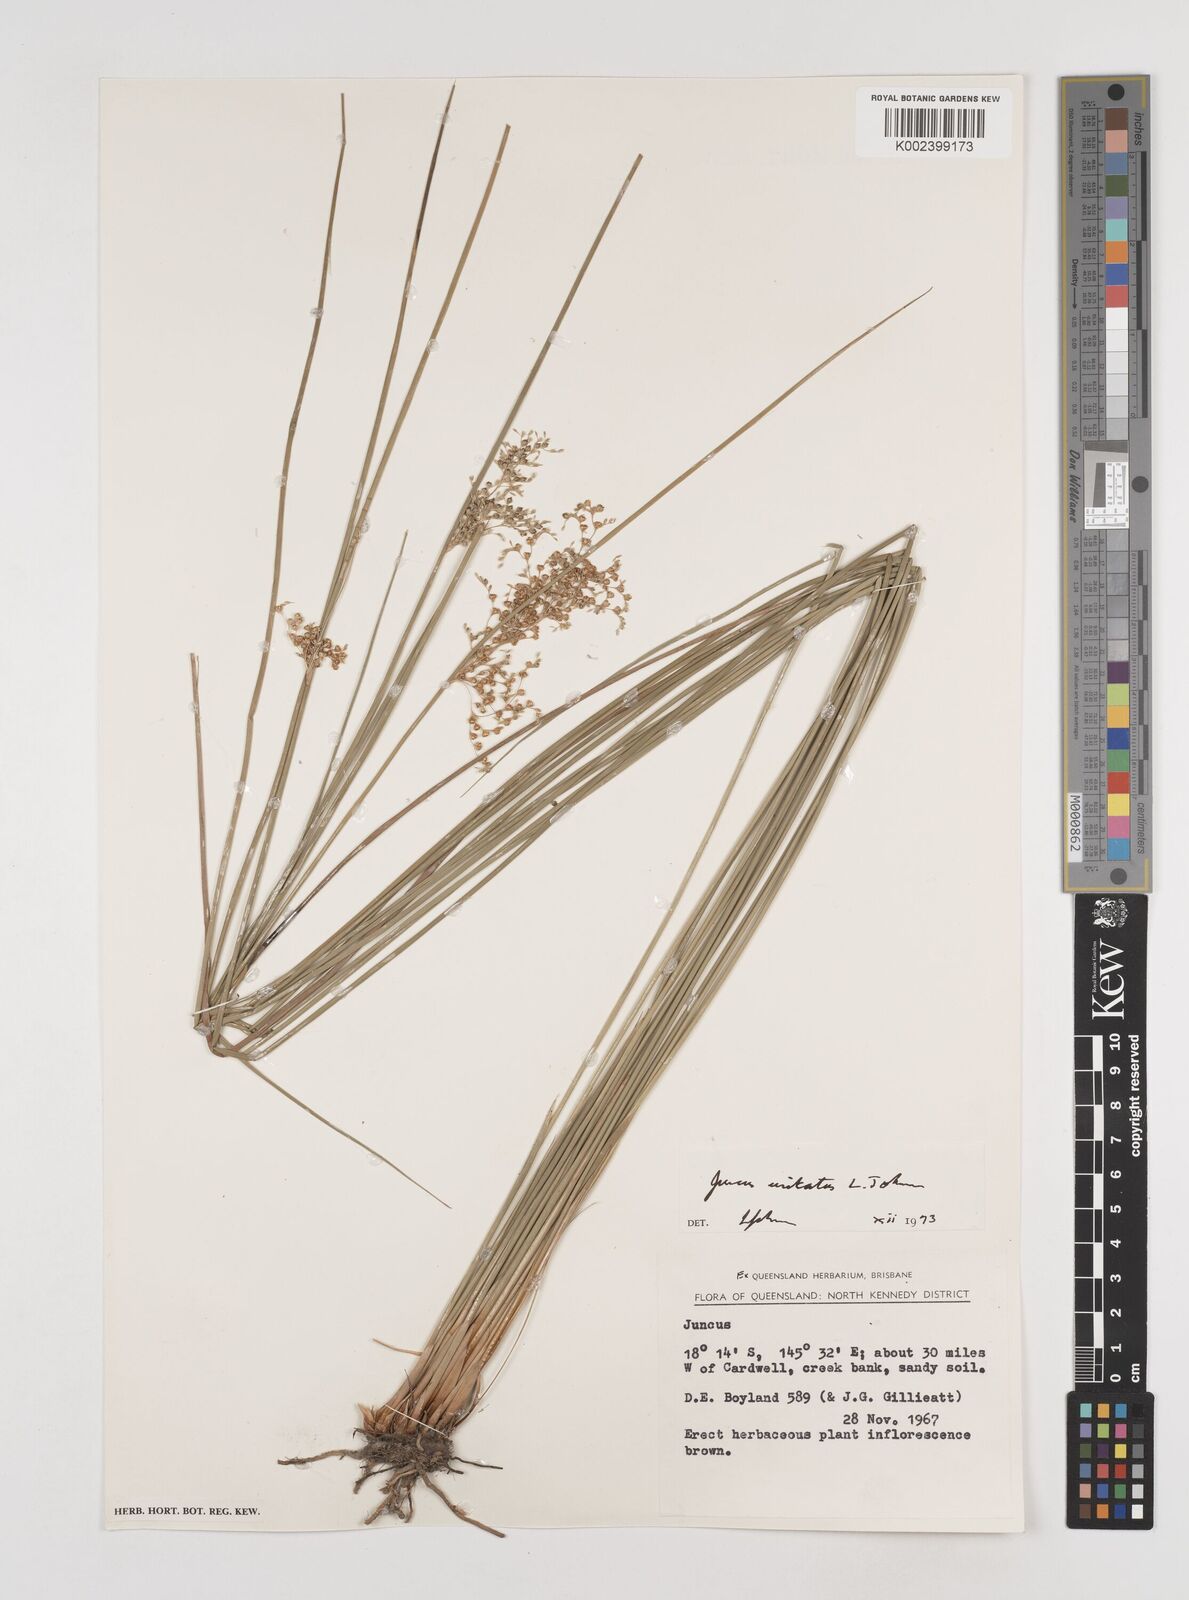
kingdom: Plantae
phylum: Tracheophyta
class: Liliopsida
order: Poales
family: Juncaceae
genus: Juncus
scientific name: Juncus usitatus
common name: Rush
